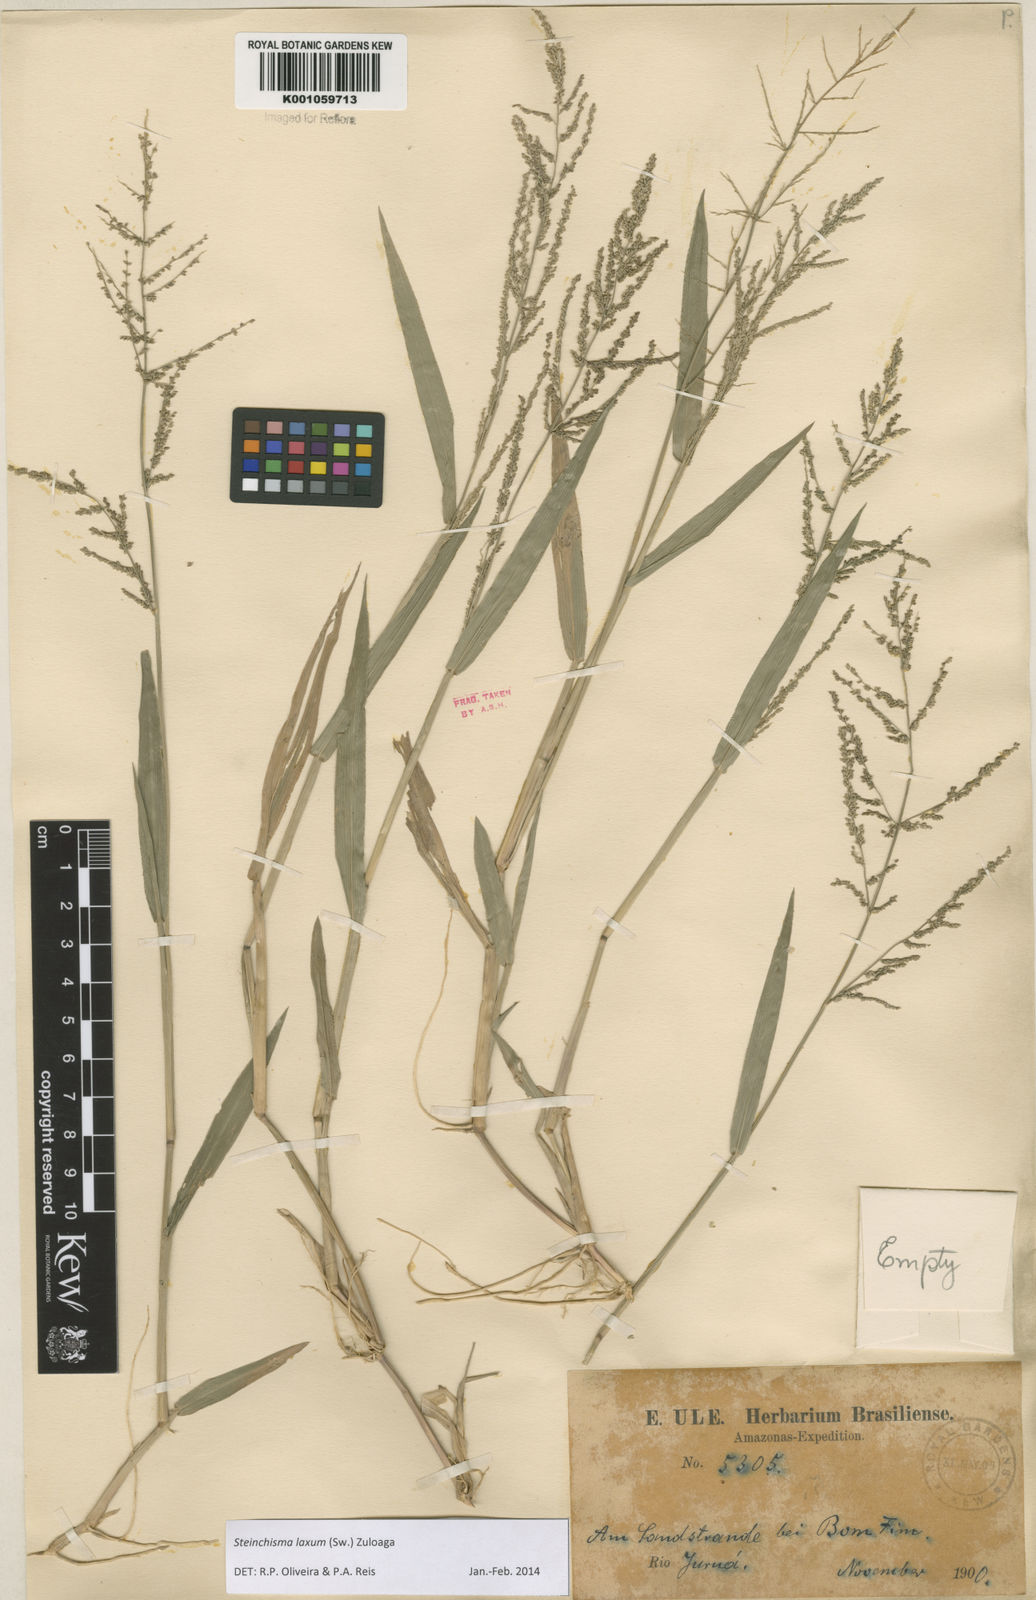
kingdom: Plantae
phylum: Tracheophyta
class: Liliopsida
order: Poales
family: Poaceae
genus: Steinchisma
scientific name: Steinchisma laxum
